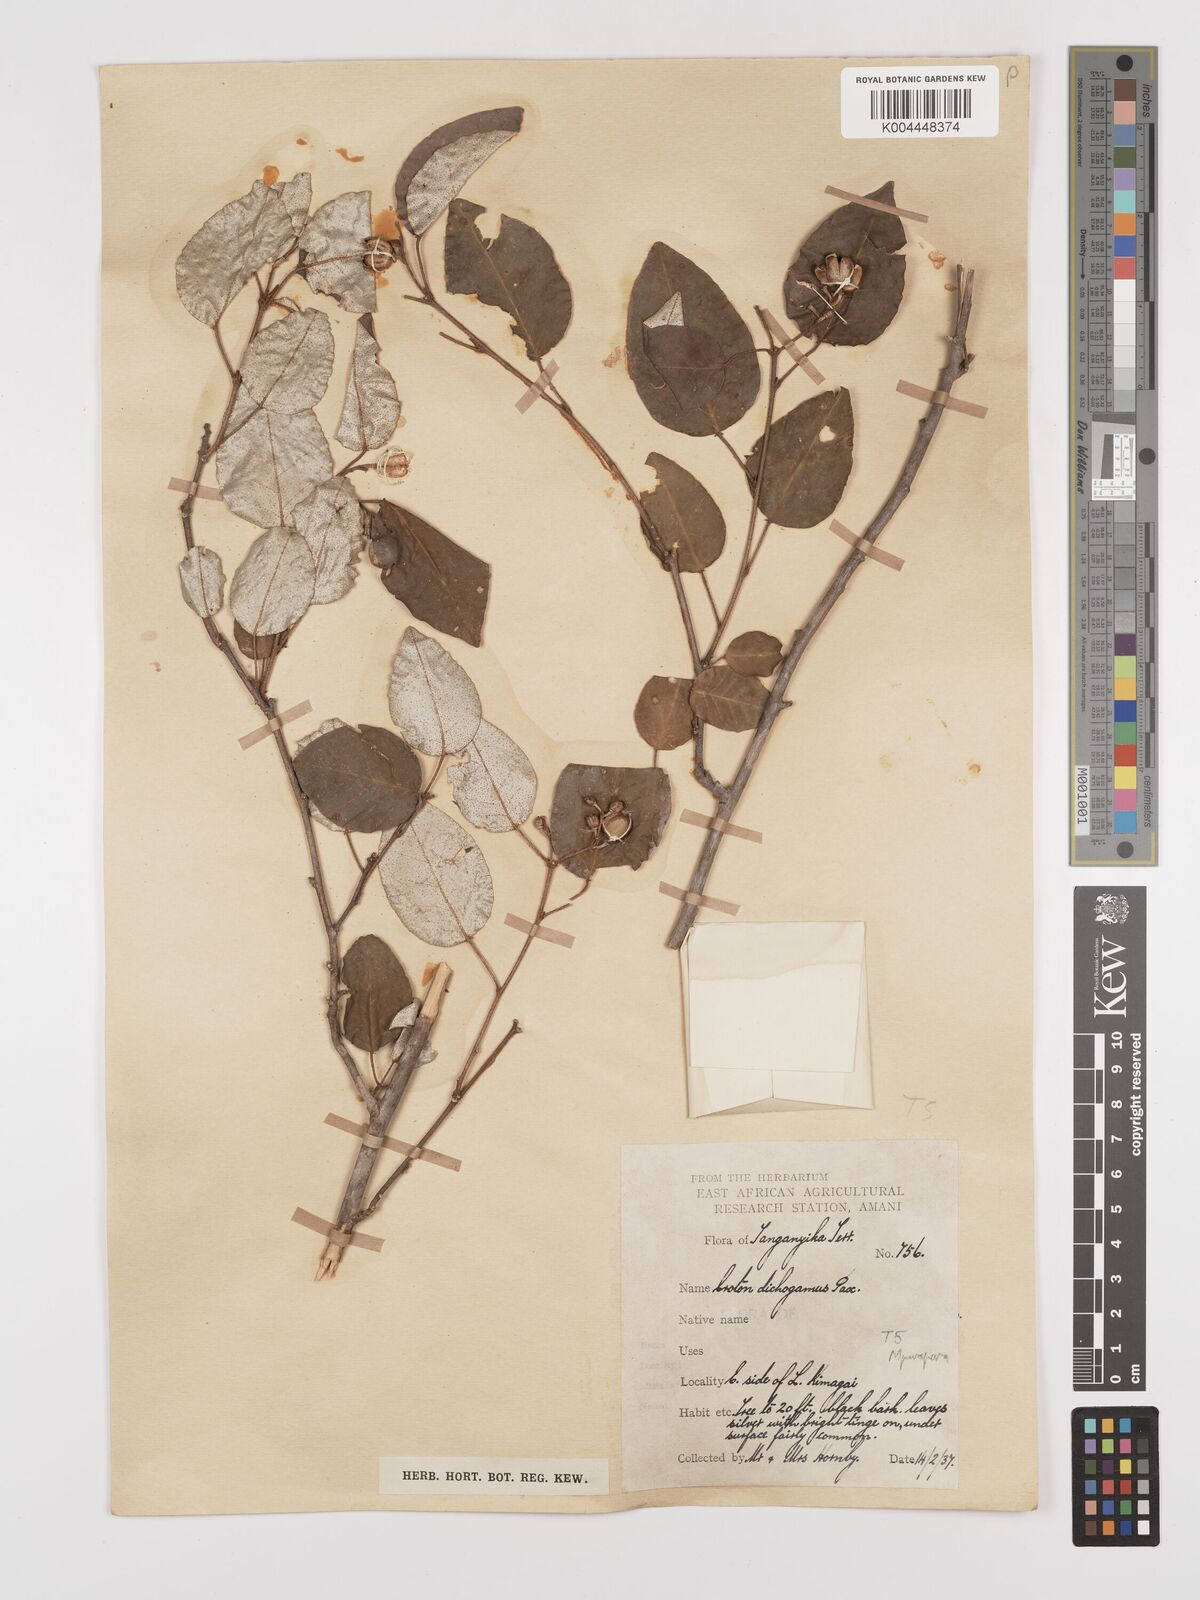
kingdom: Plantae
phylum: Tracheophyta
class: Magnoliopsida
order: Malpighiales
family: Euphorbiaceae
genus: Croton
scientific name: Croton dichogamus
